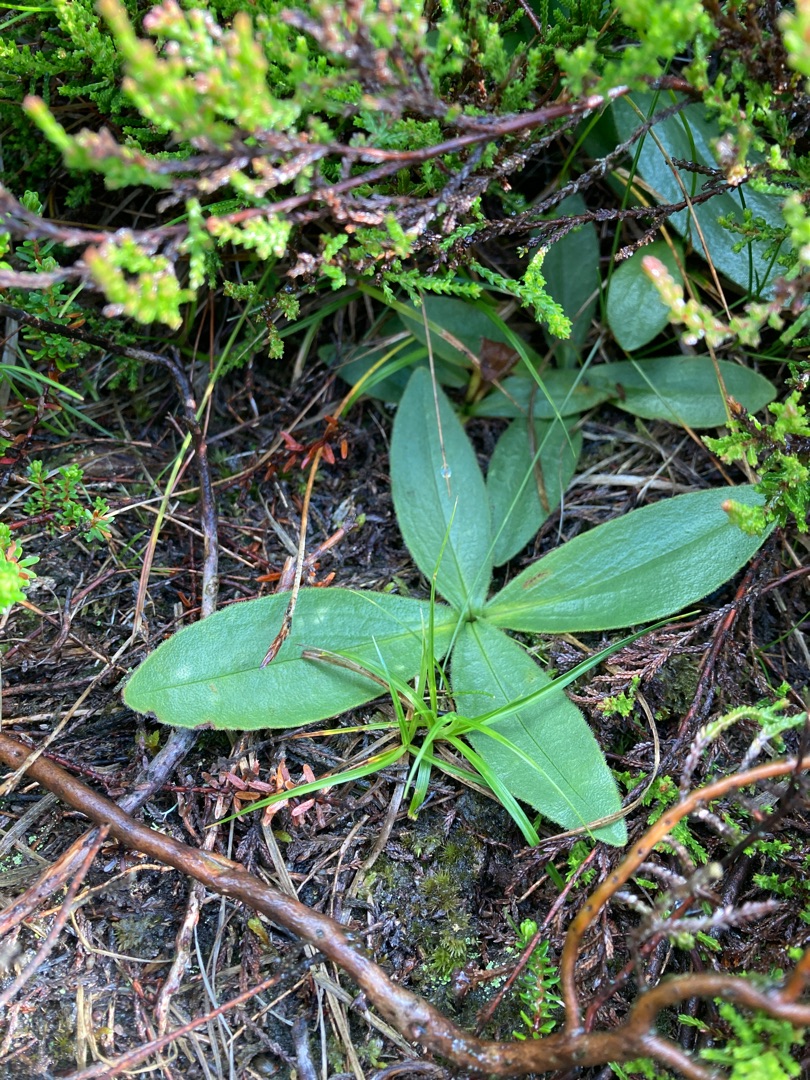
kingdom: Plantae
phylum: Tracheophyta
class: Magnoliopsida
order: Asterales
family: Asteraceae
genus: Arnica
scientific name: Arnica montana
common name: Guldblomme
